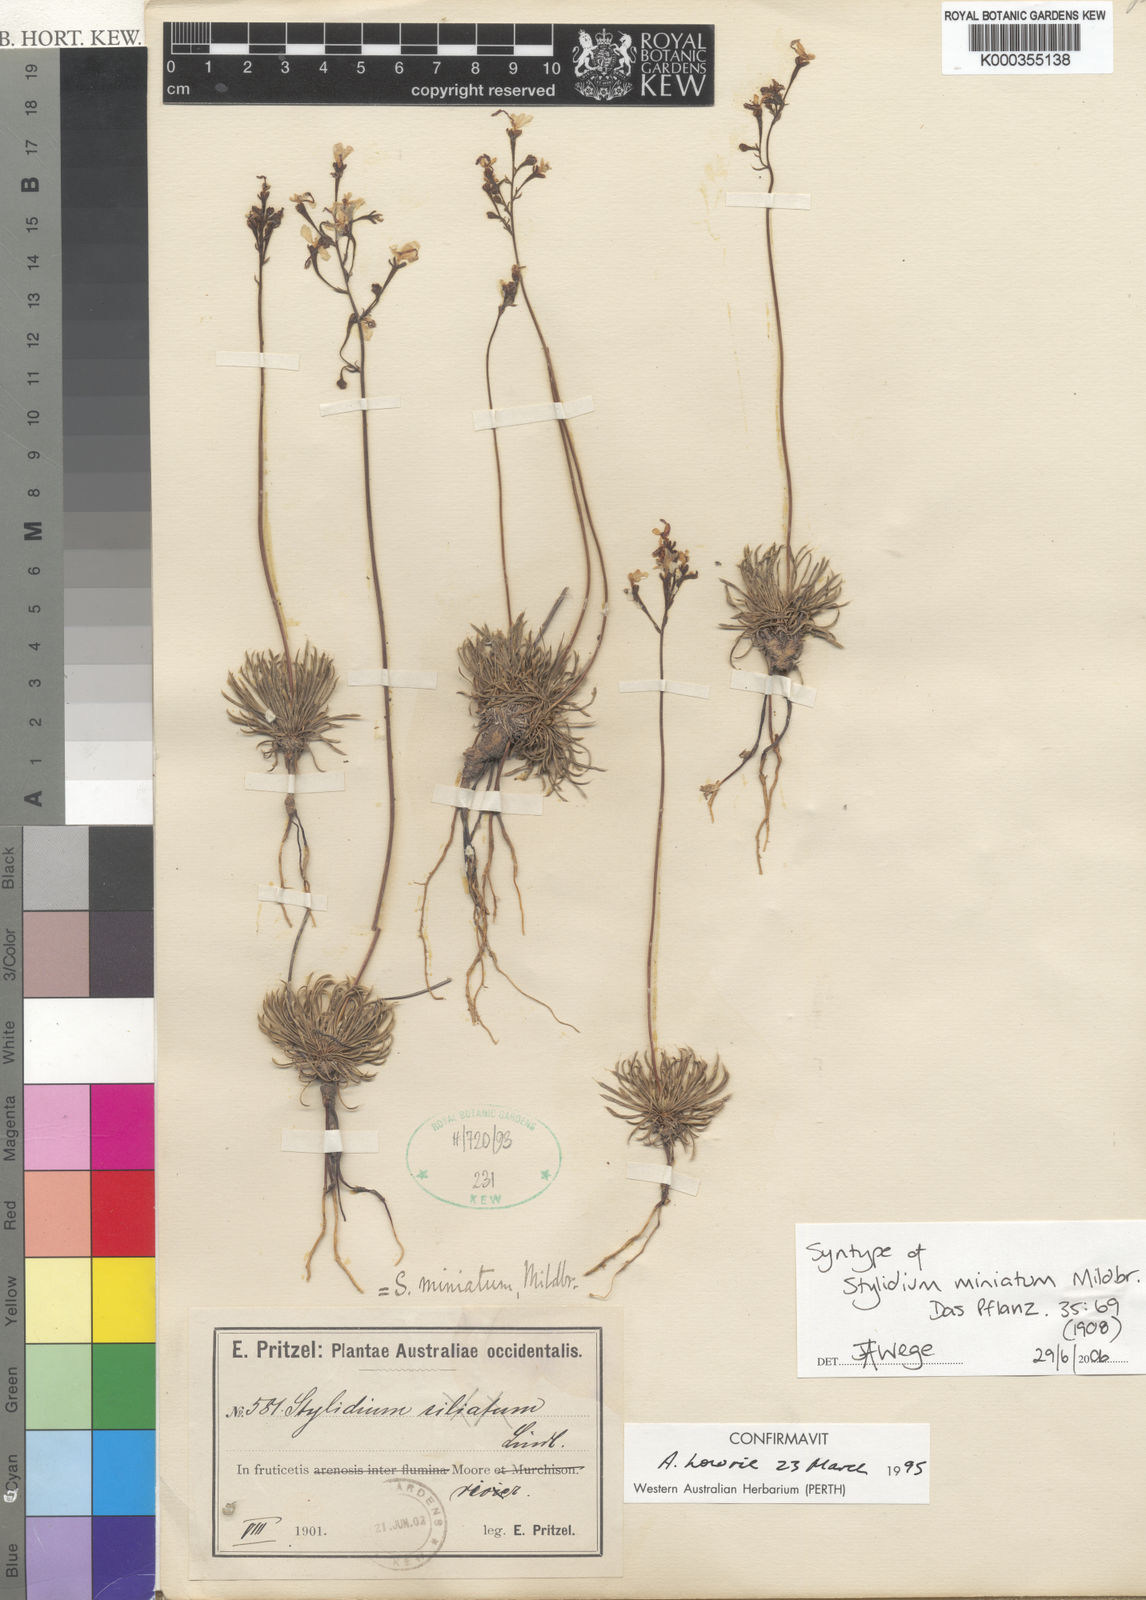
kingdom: Plantae
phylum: Tracheophyta
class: Magnoliopsida
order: Asterales
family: Stylidiaceae
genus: Stylidium
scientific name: Stylidium miniatum
